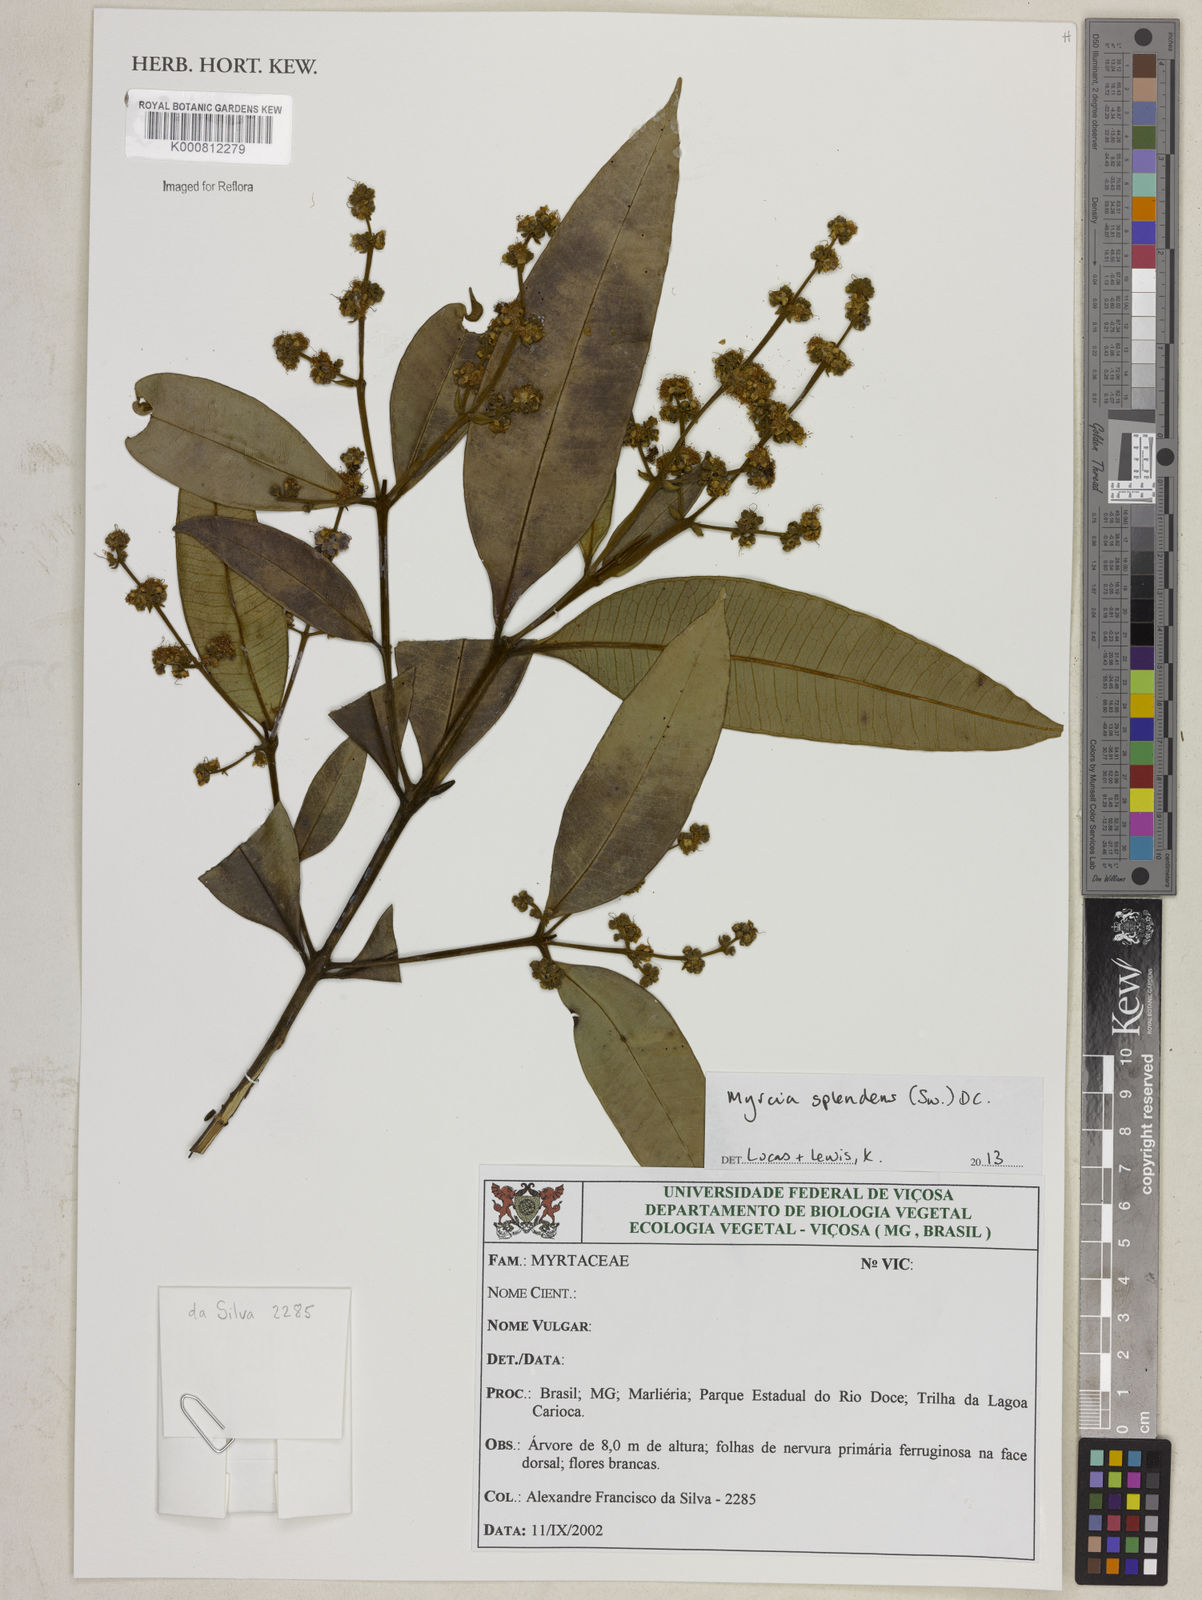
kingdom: Plantae
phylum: Tracheophyta
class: Magnoliopsida
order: Myrtales
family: Myrtaceae
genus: Myrcia
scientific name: Myrcia splendens
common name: Surinam cherry
